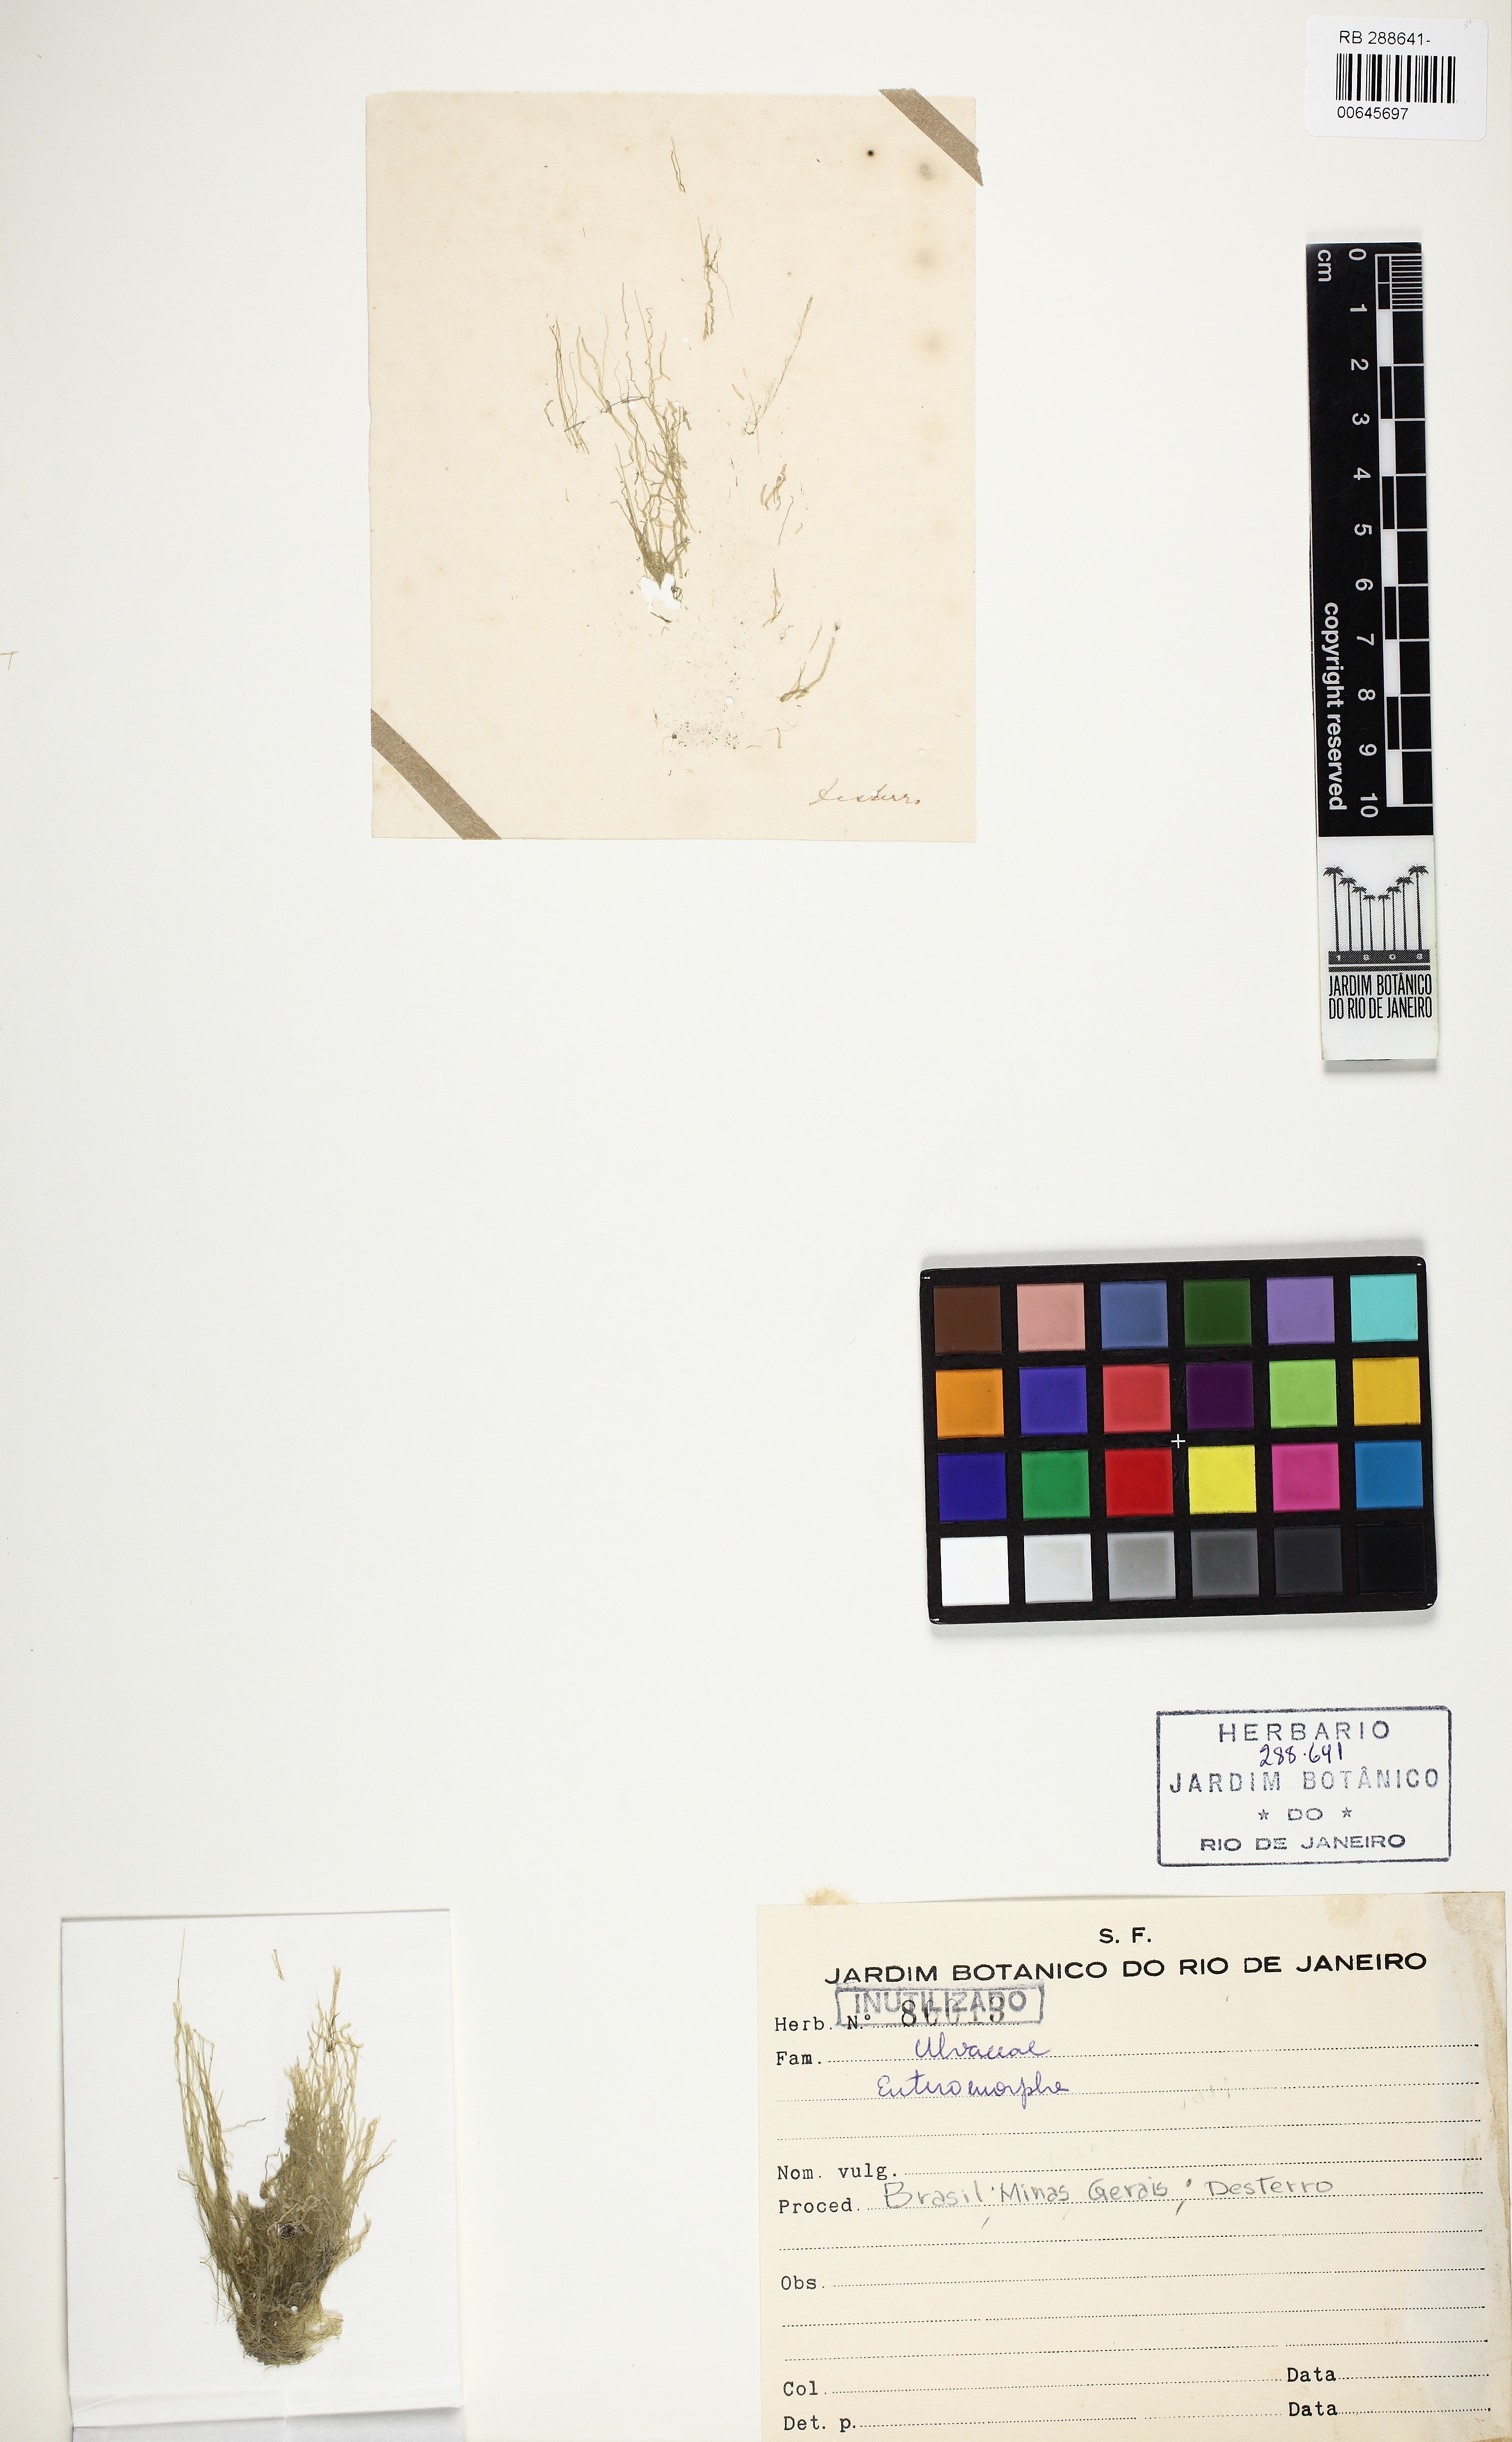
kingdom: Plantae
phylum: Chlorophyta
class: Ulvophyceae
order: Ulvales
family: Ulvaceae
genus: Ulva
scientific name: Ulva
